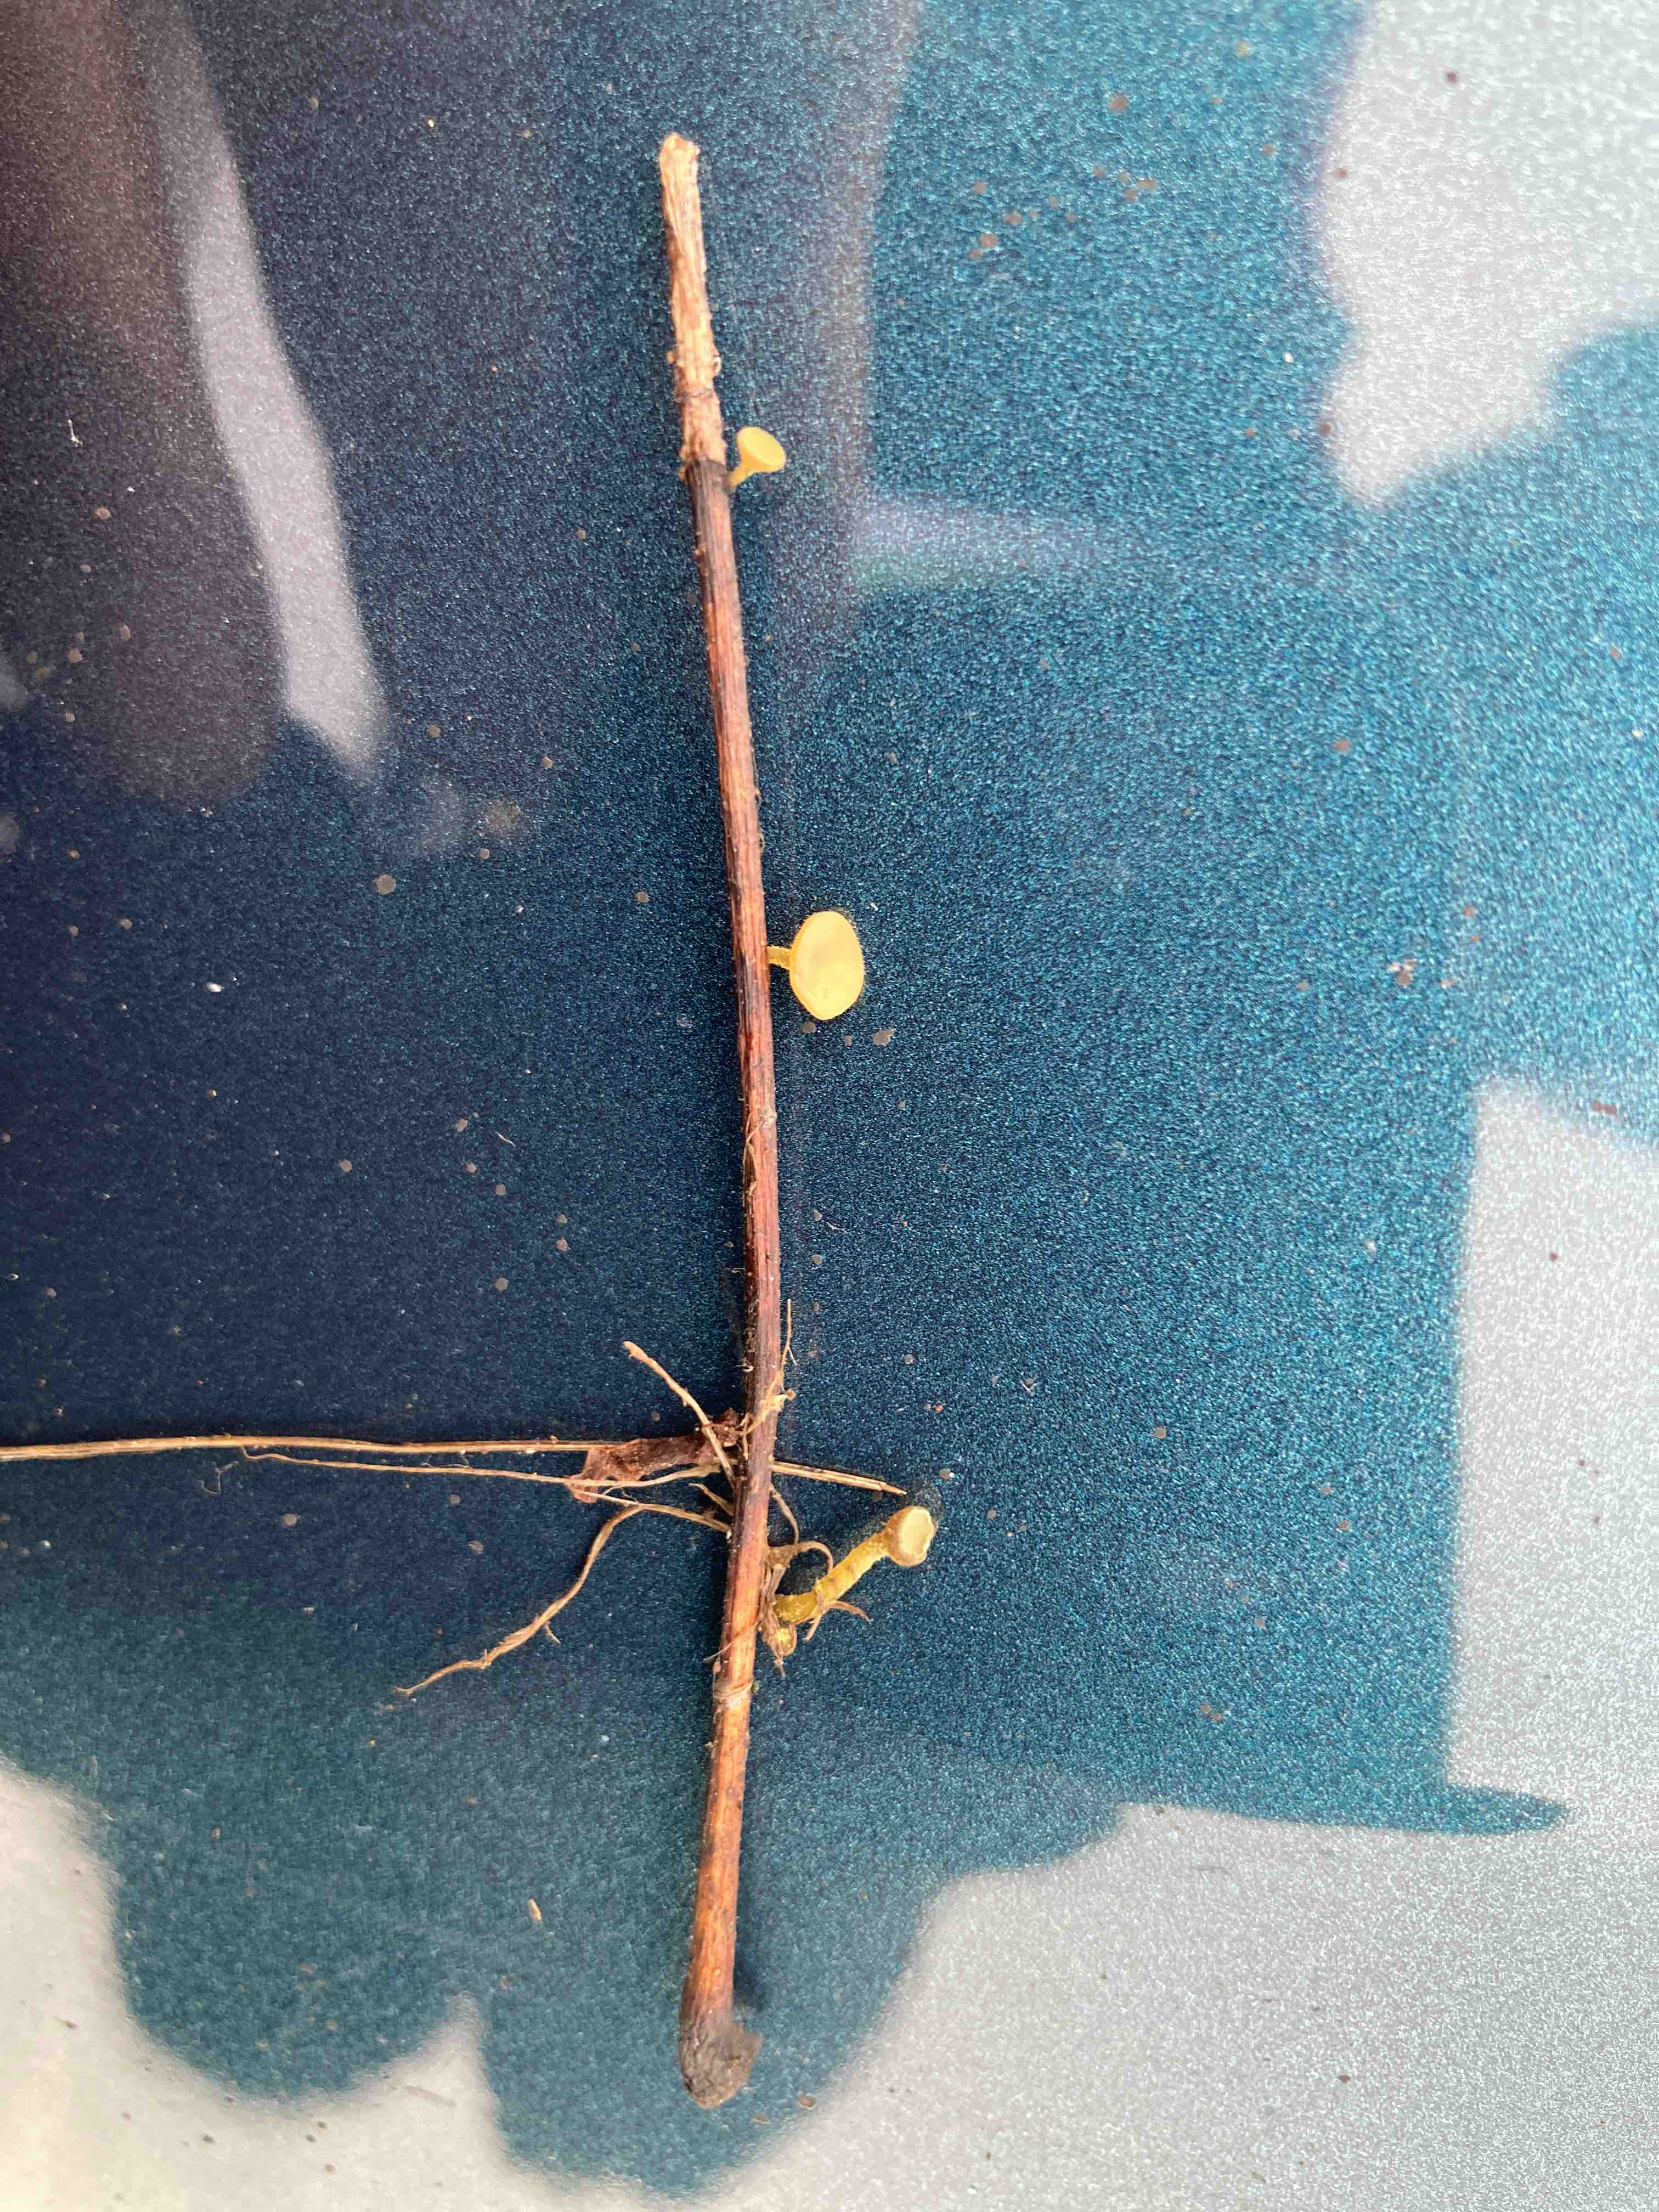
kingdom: Fungi
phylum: Ascomycota
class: Leotiomycetes
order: Helotiales
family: Rutstroemiaceae
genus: Lanzia
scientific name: Lanzia luteovirescens
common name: olivengul brunskive
